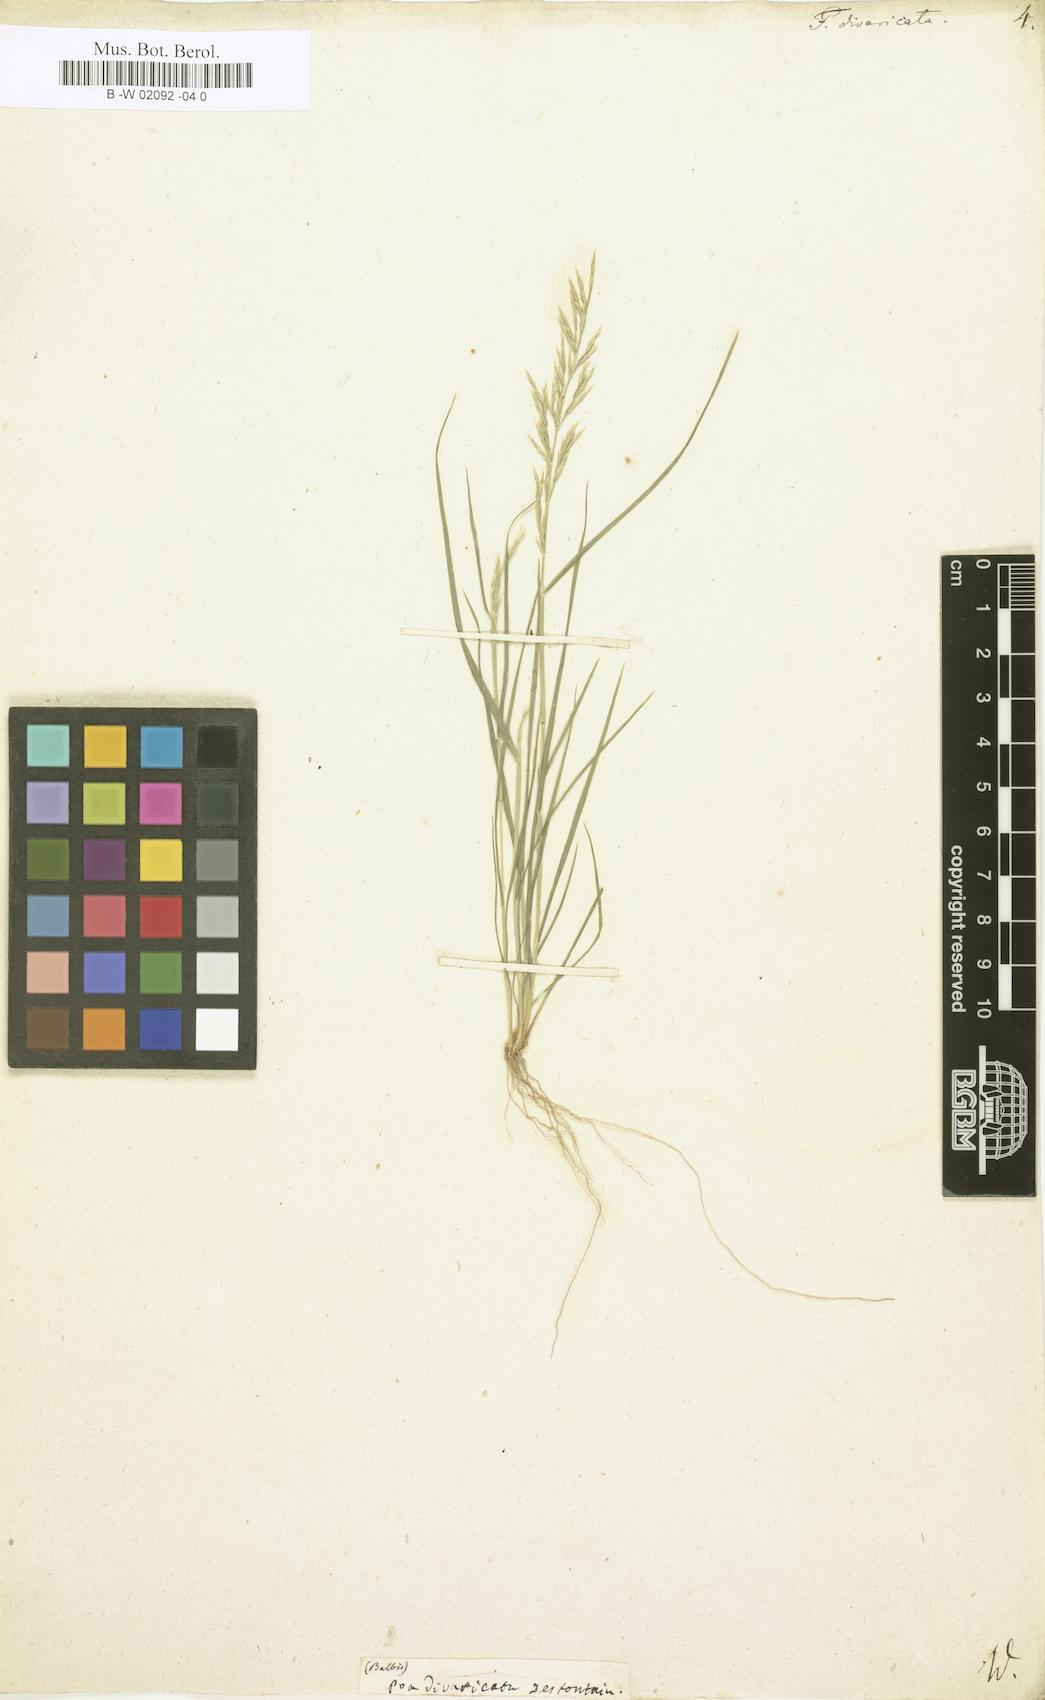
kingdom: Plantae
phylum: Tracheophyta
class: Liliopsida
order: Poales
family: Poaceae
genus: Festuca
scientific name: Festuca divaricata
